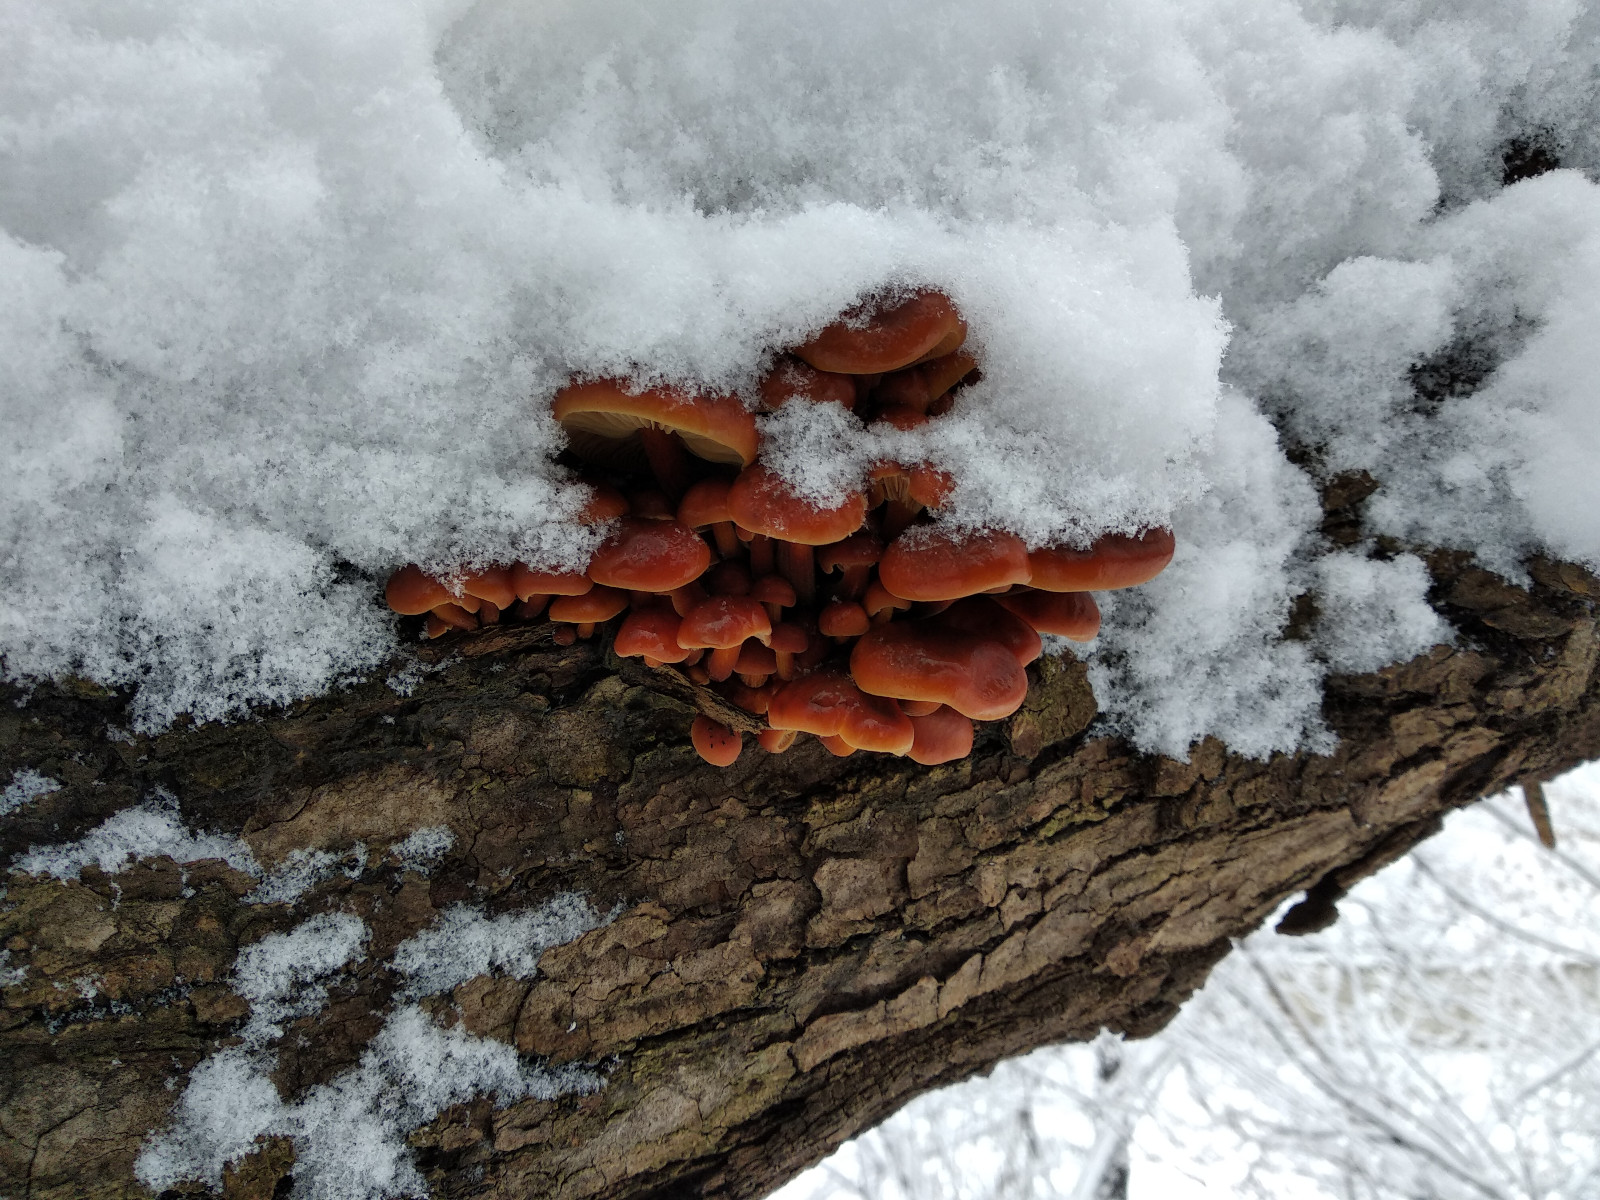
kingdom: Fungi
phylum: Basidiomycota
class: Agaricomycetes
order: Agaricales
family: Physalacriaceae
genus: Flammulina
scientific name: Flammulina
